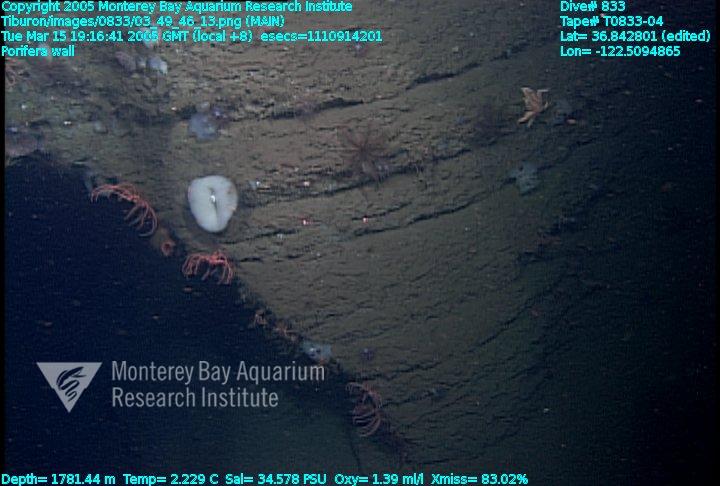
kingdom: Animalia
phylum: Porifera
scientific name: Porifera
